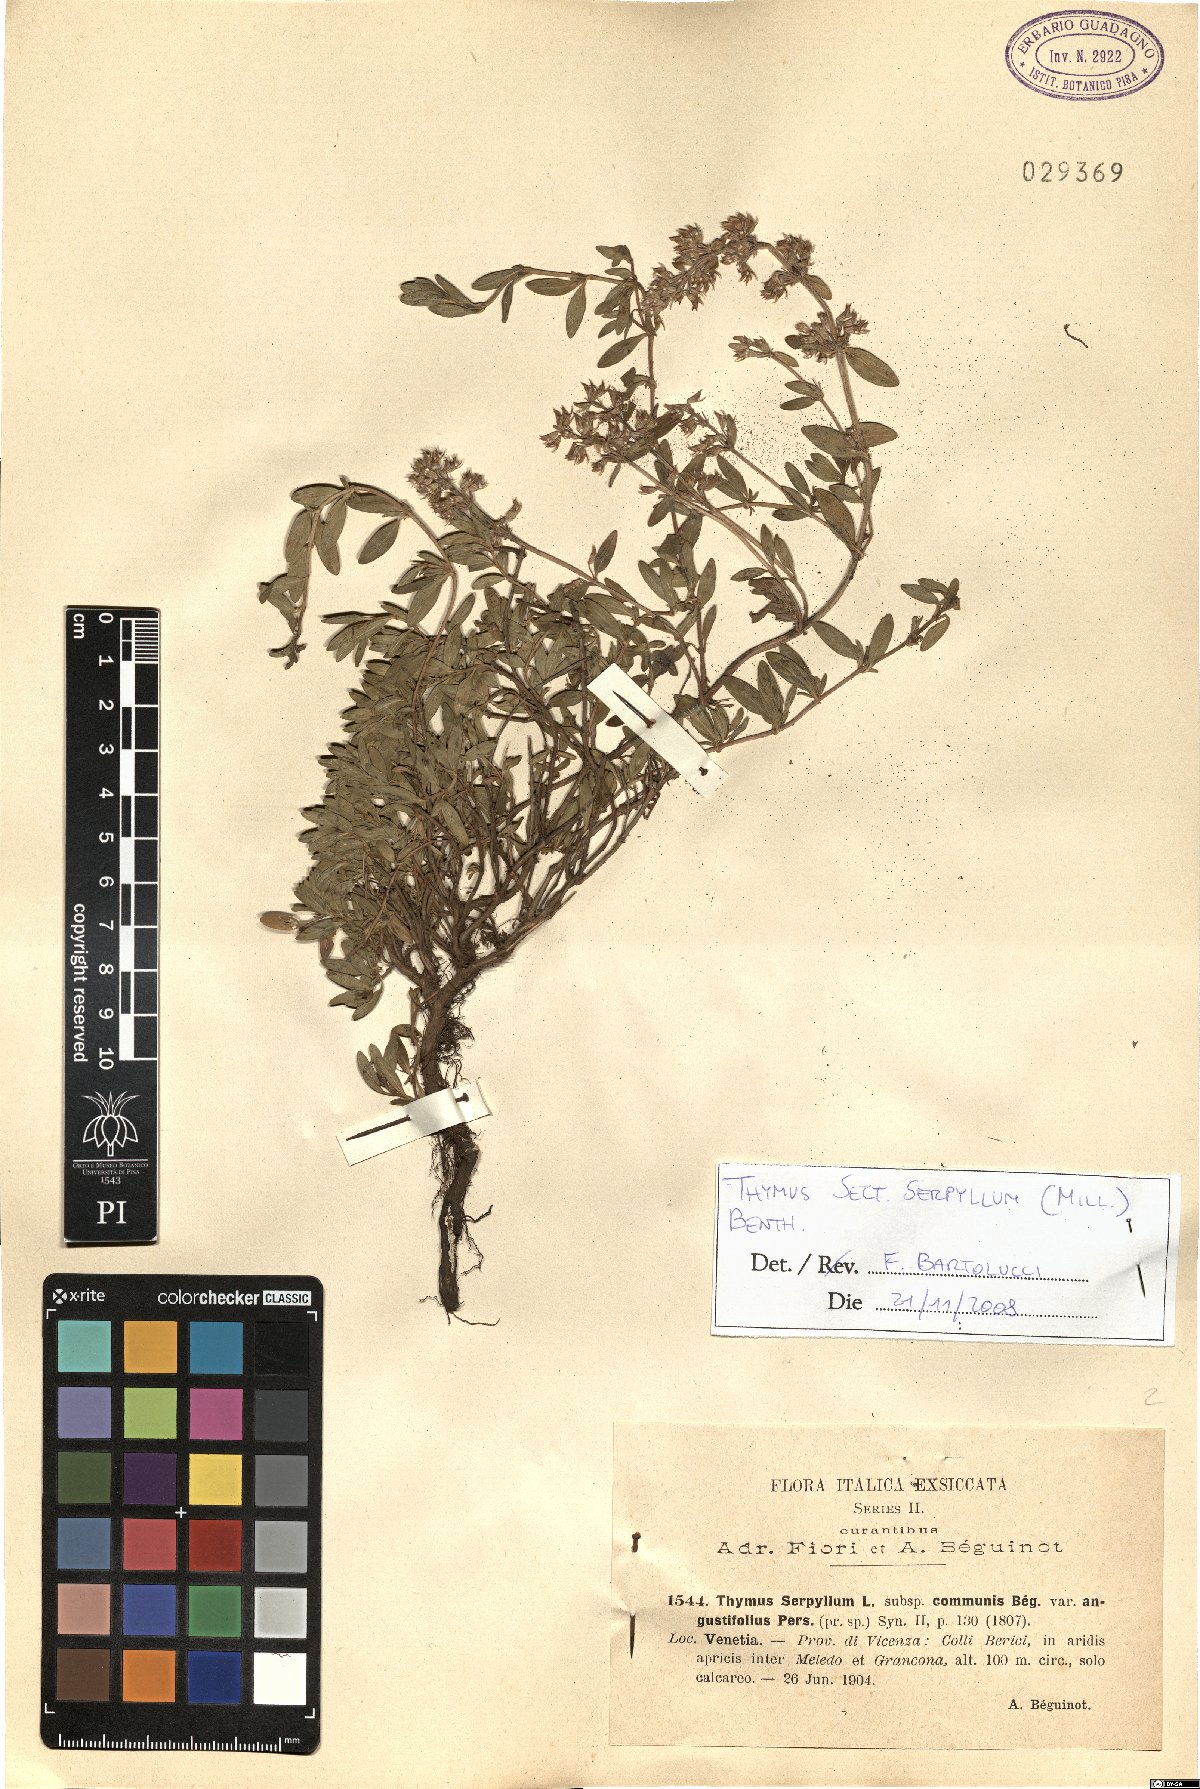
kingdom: Plantae
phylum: Tracheophyta
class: Magnoliopsida
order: Lamiales
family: Lamiaceae
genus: Thymus
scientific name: Thymus serpyllum
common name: Breckland thyme
